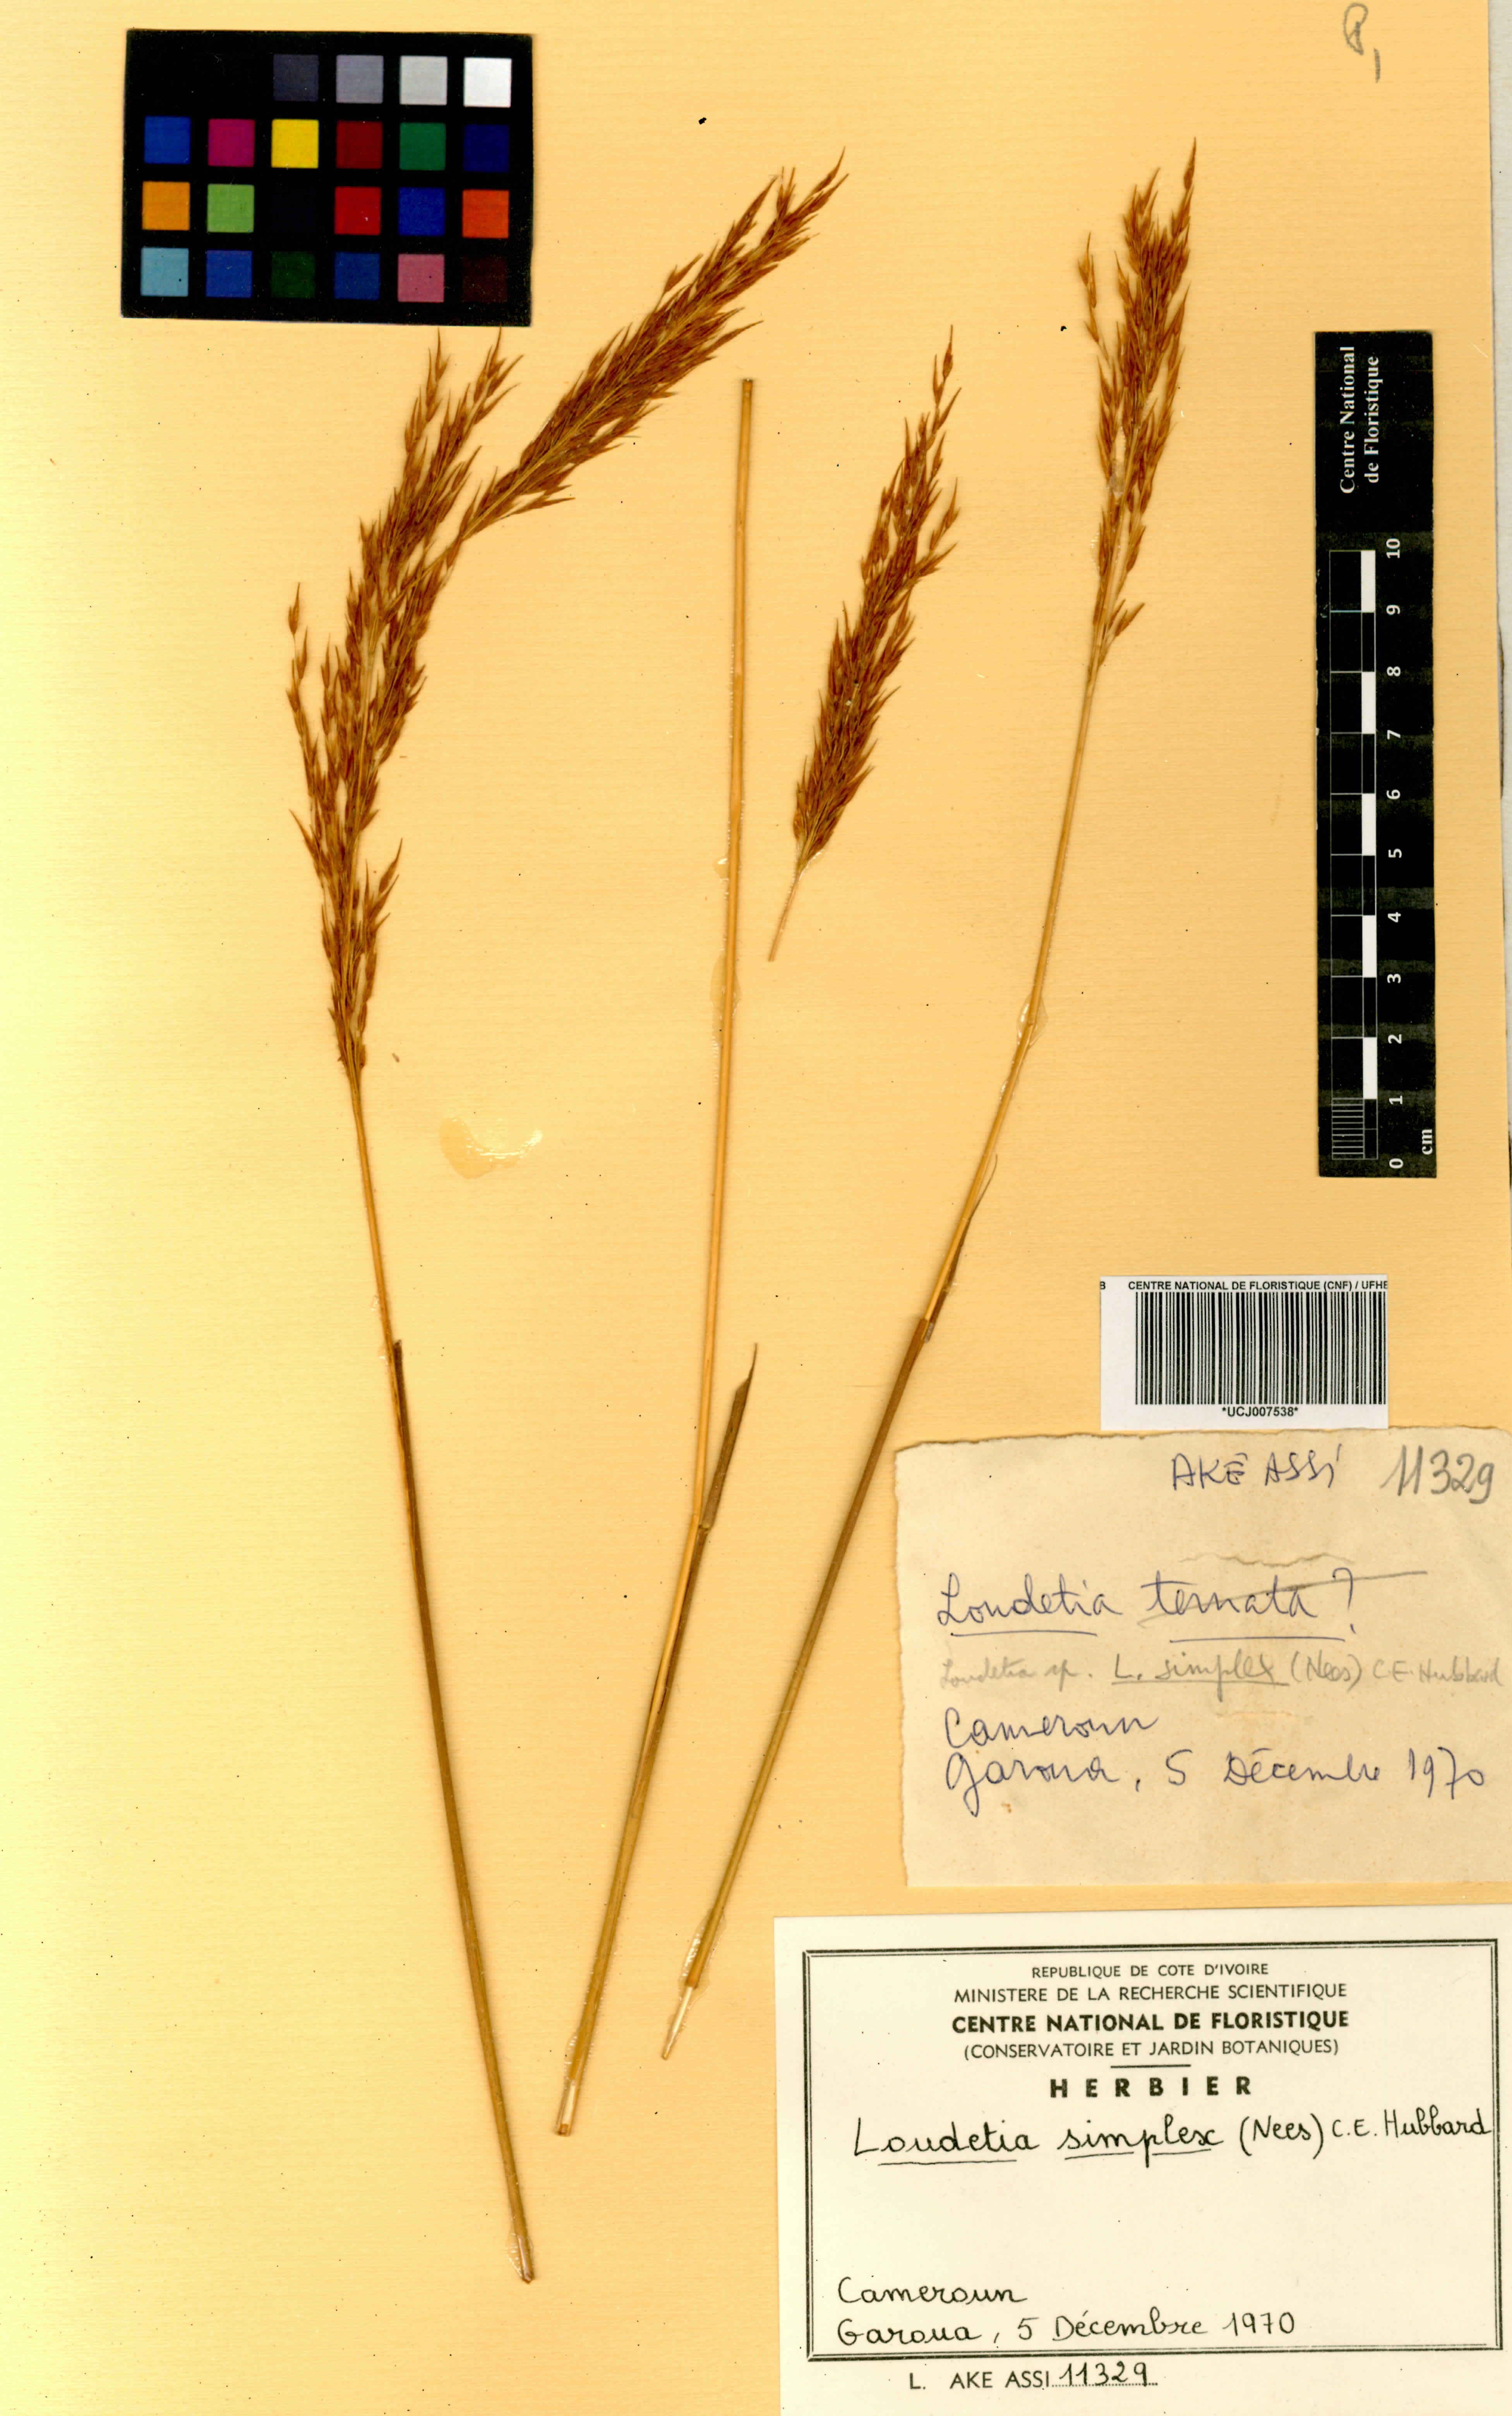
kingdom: Plantae
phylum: Tracheophyta
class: Liliopsida
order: Poales
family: Poaceae
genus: Loudetia
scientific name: Loudetia simplex
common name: Common russet grass
